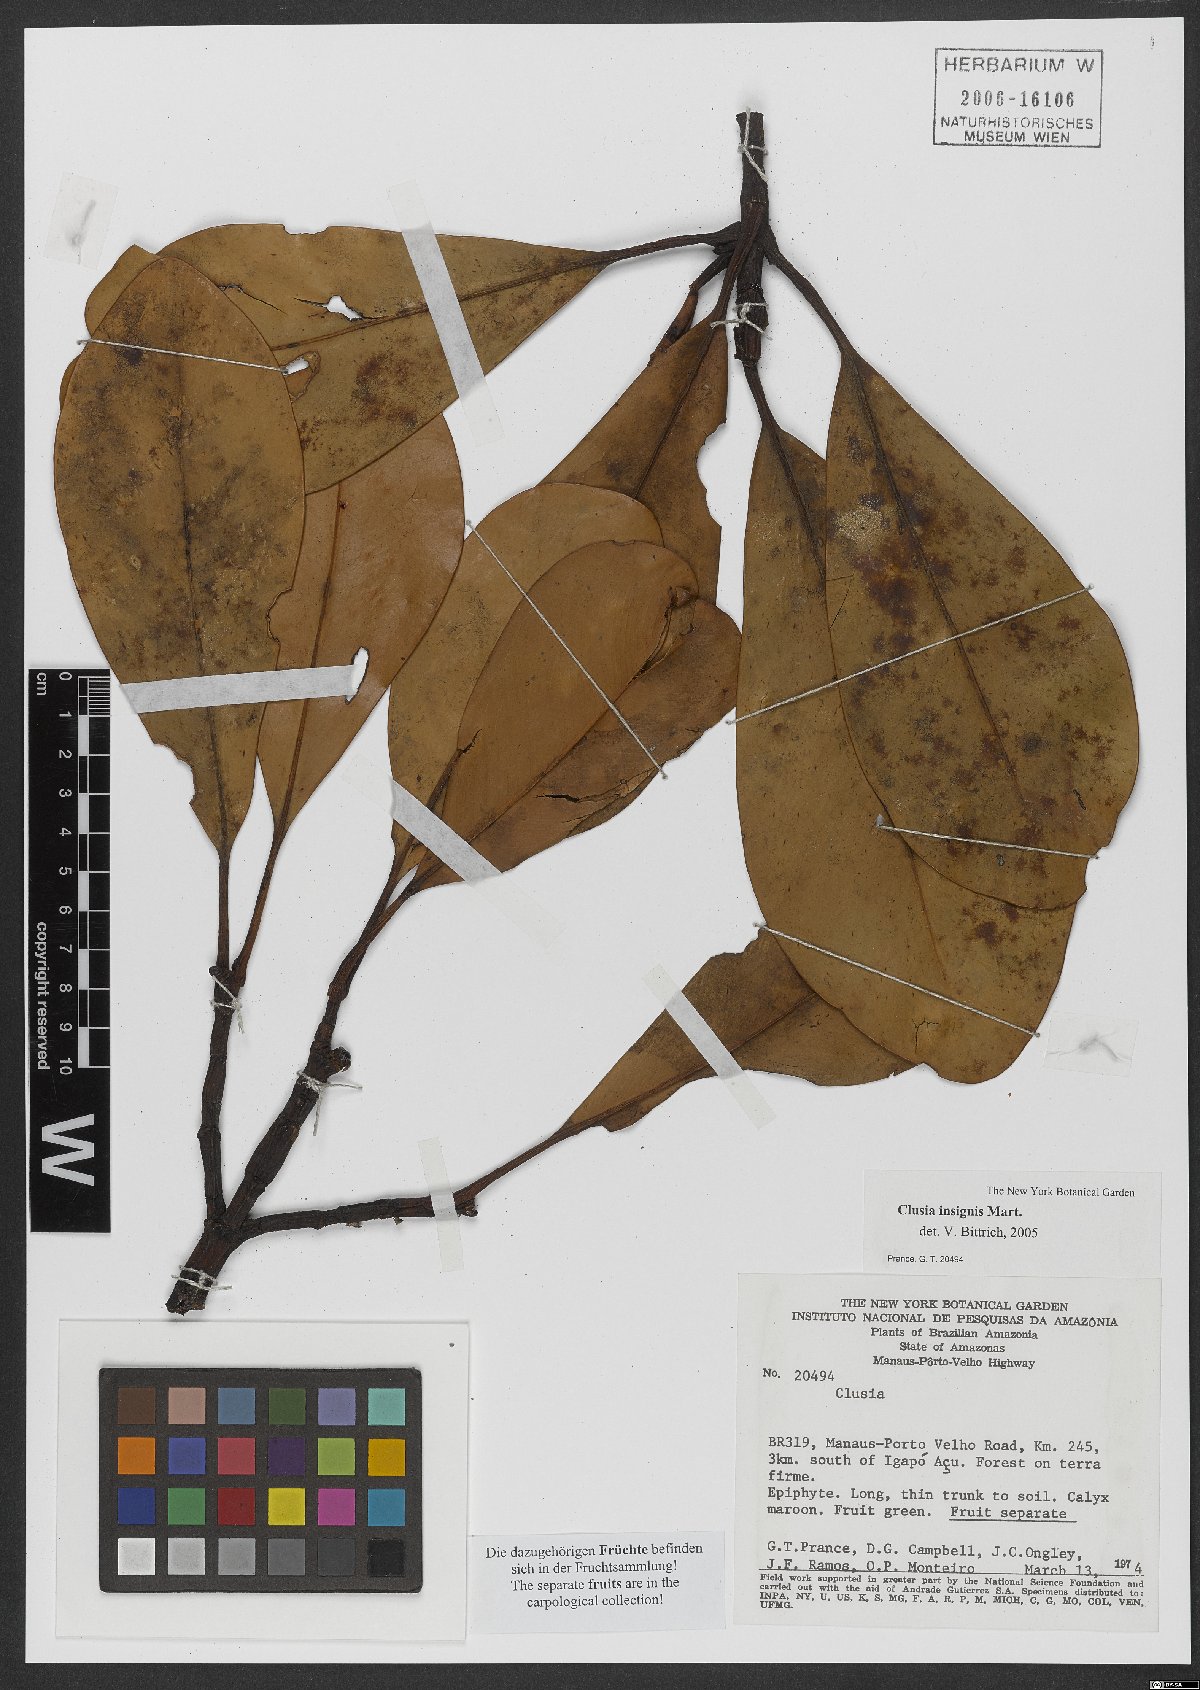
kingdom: Plantae
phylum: Tracheophyta
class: Magnoliopsida
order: Malpighiales
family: Clusiaceae
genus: Clusia
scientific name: Clusia insignis
